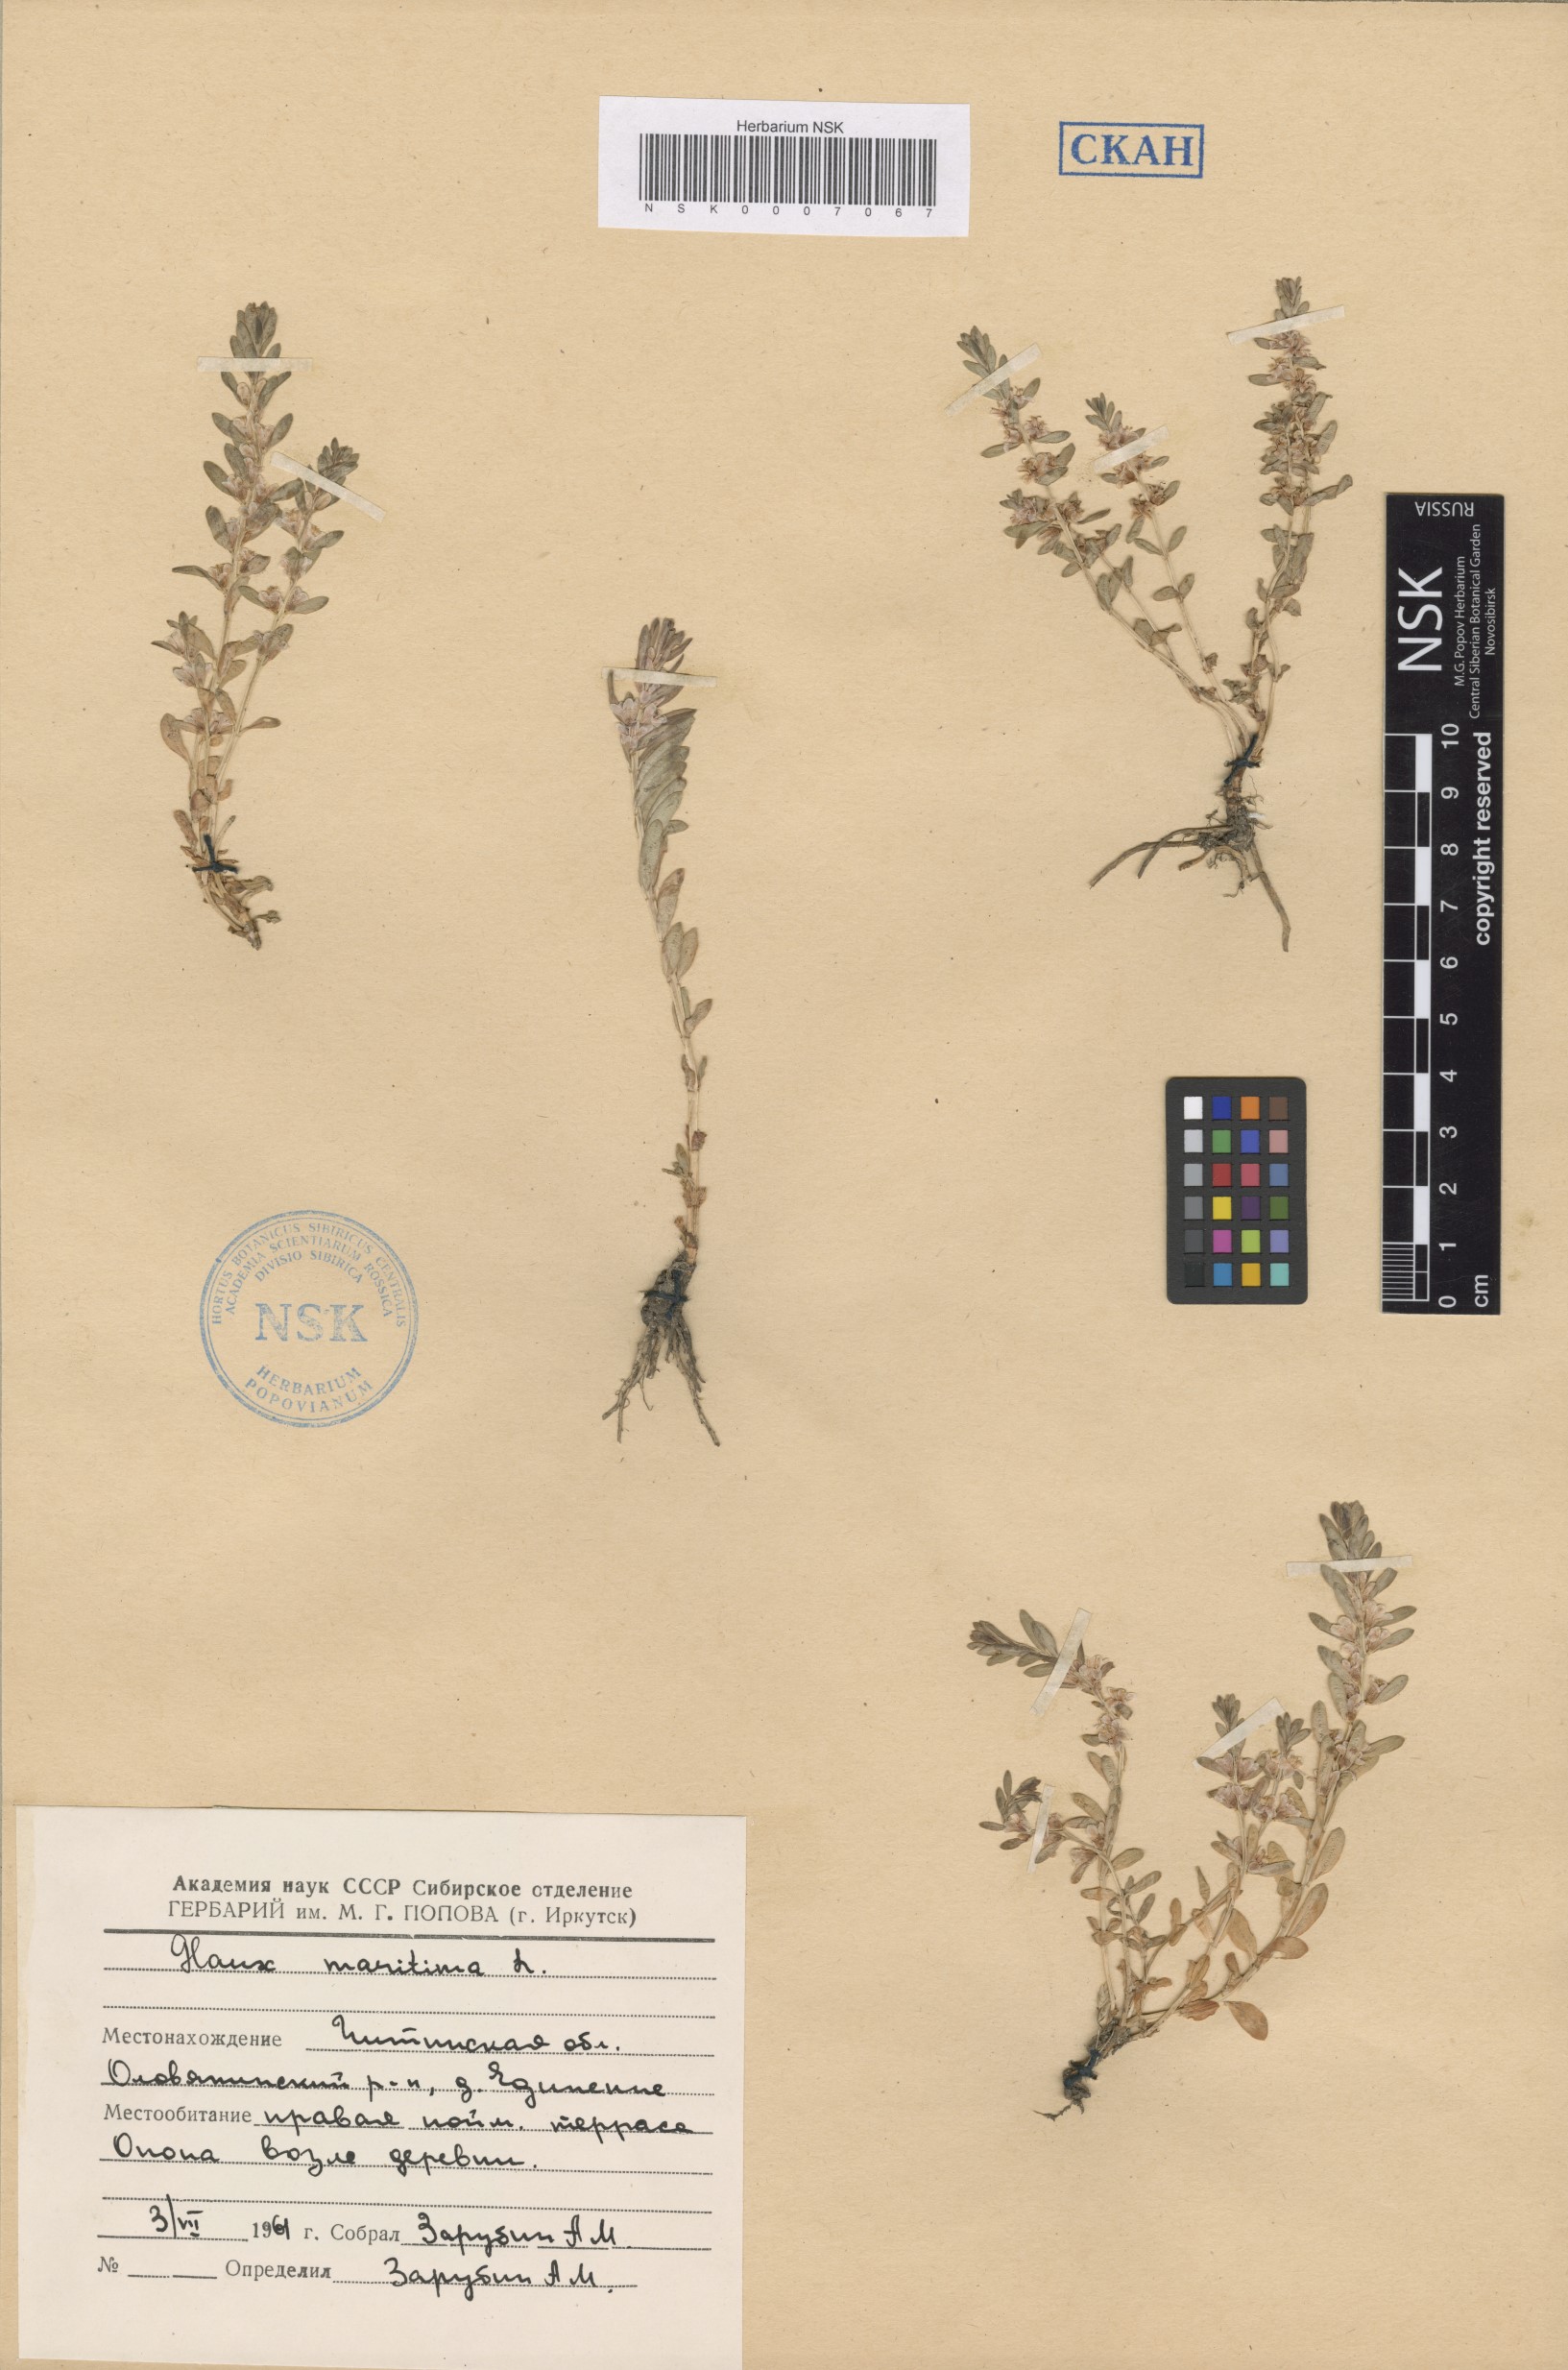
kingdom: Plantae
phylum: Tracheophyta
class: Magnoliopsida
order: Ericales
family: Primulaceae
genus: Lysimachia
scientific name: Lysimachia maritima
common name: Sea milkwort
